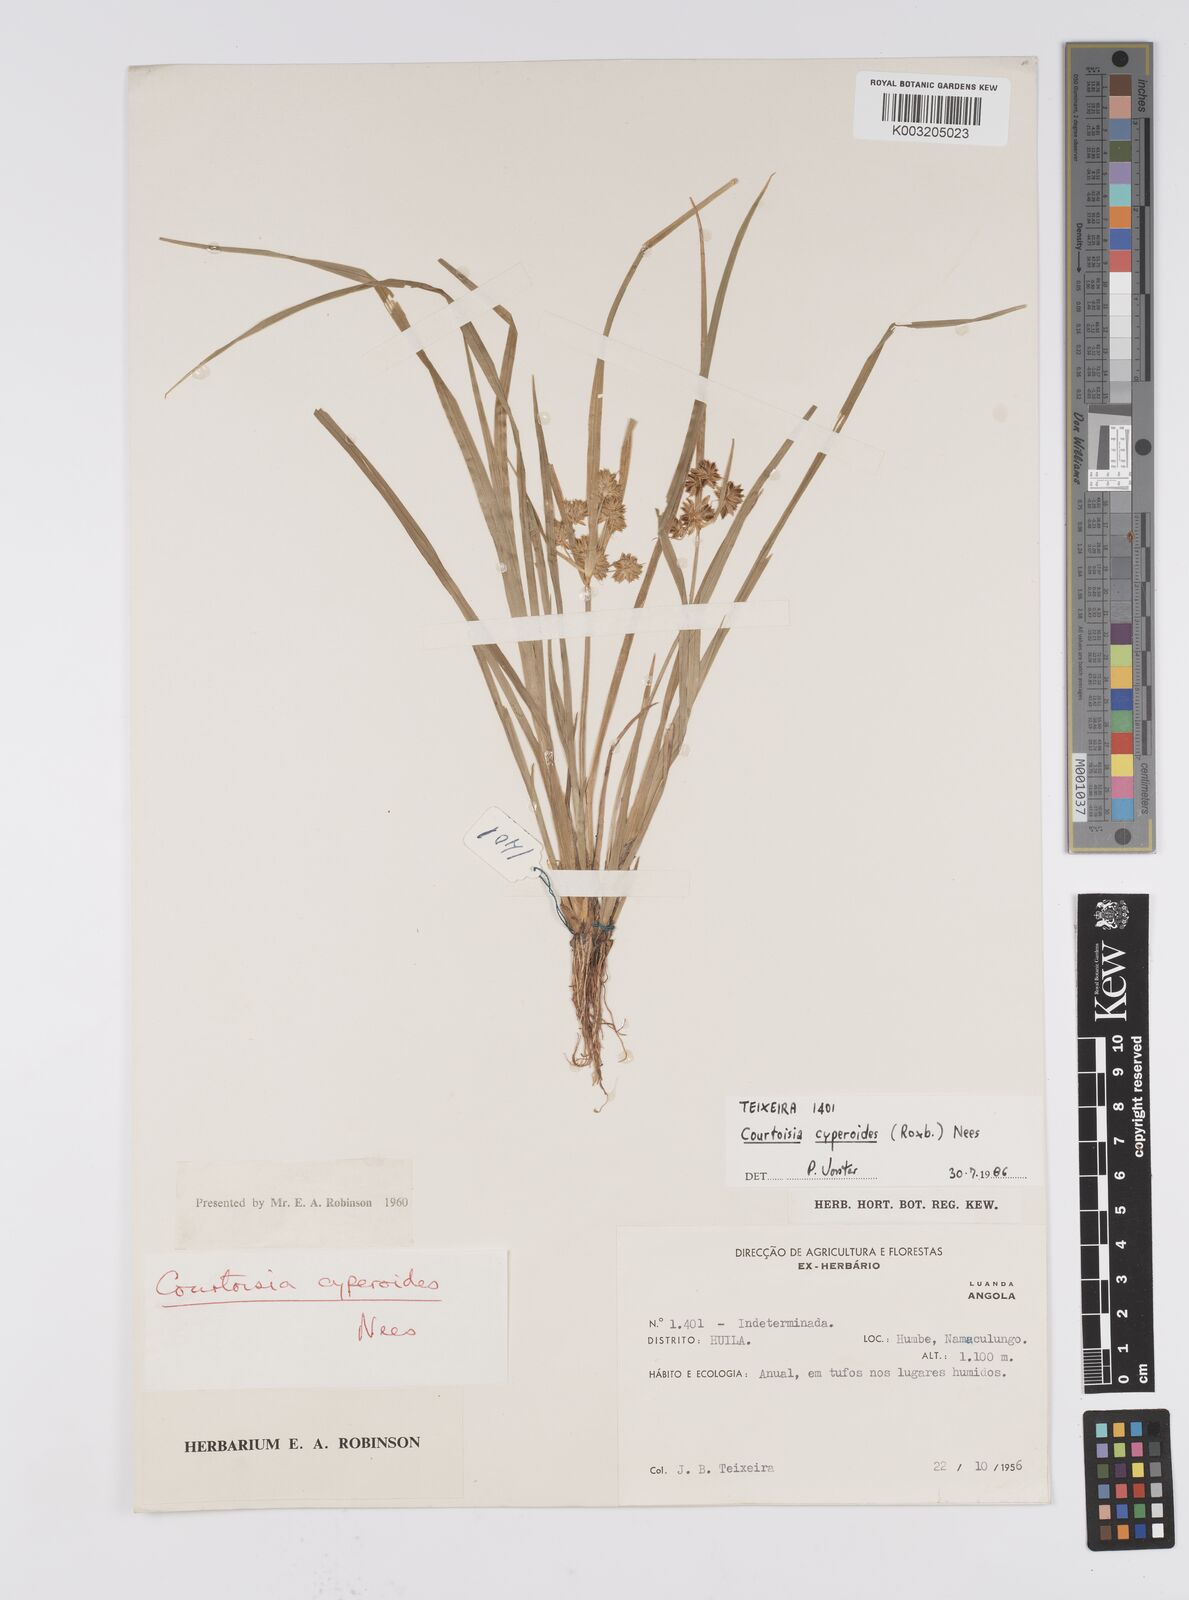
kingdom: Plantae
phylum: Tracheophyta
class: Liliopsida
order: Poales
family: Cyperaceae
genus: Cyperus
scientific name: Cyperus cyperoides
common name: Pacific island flat sedge
